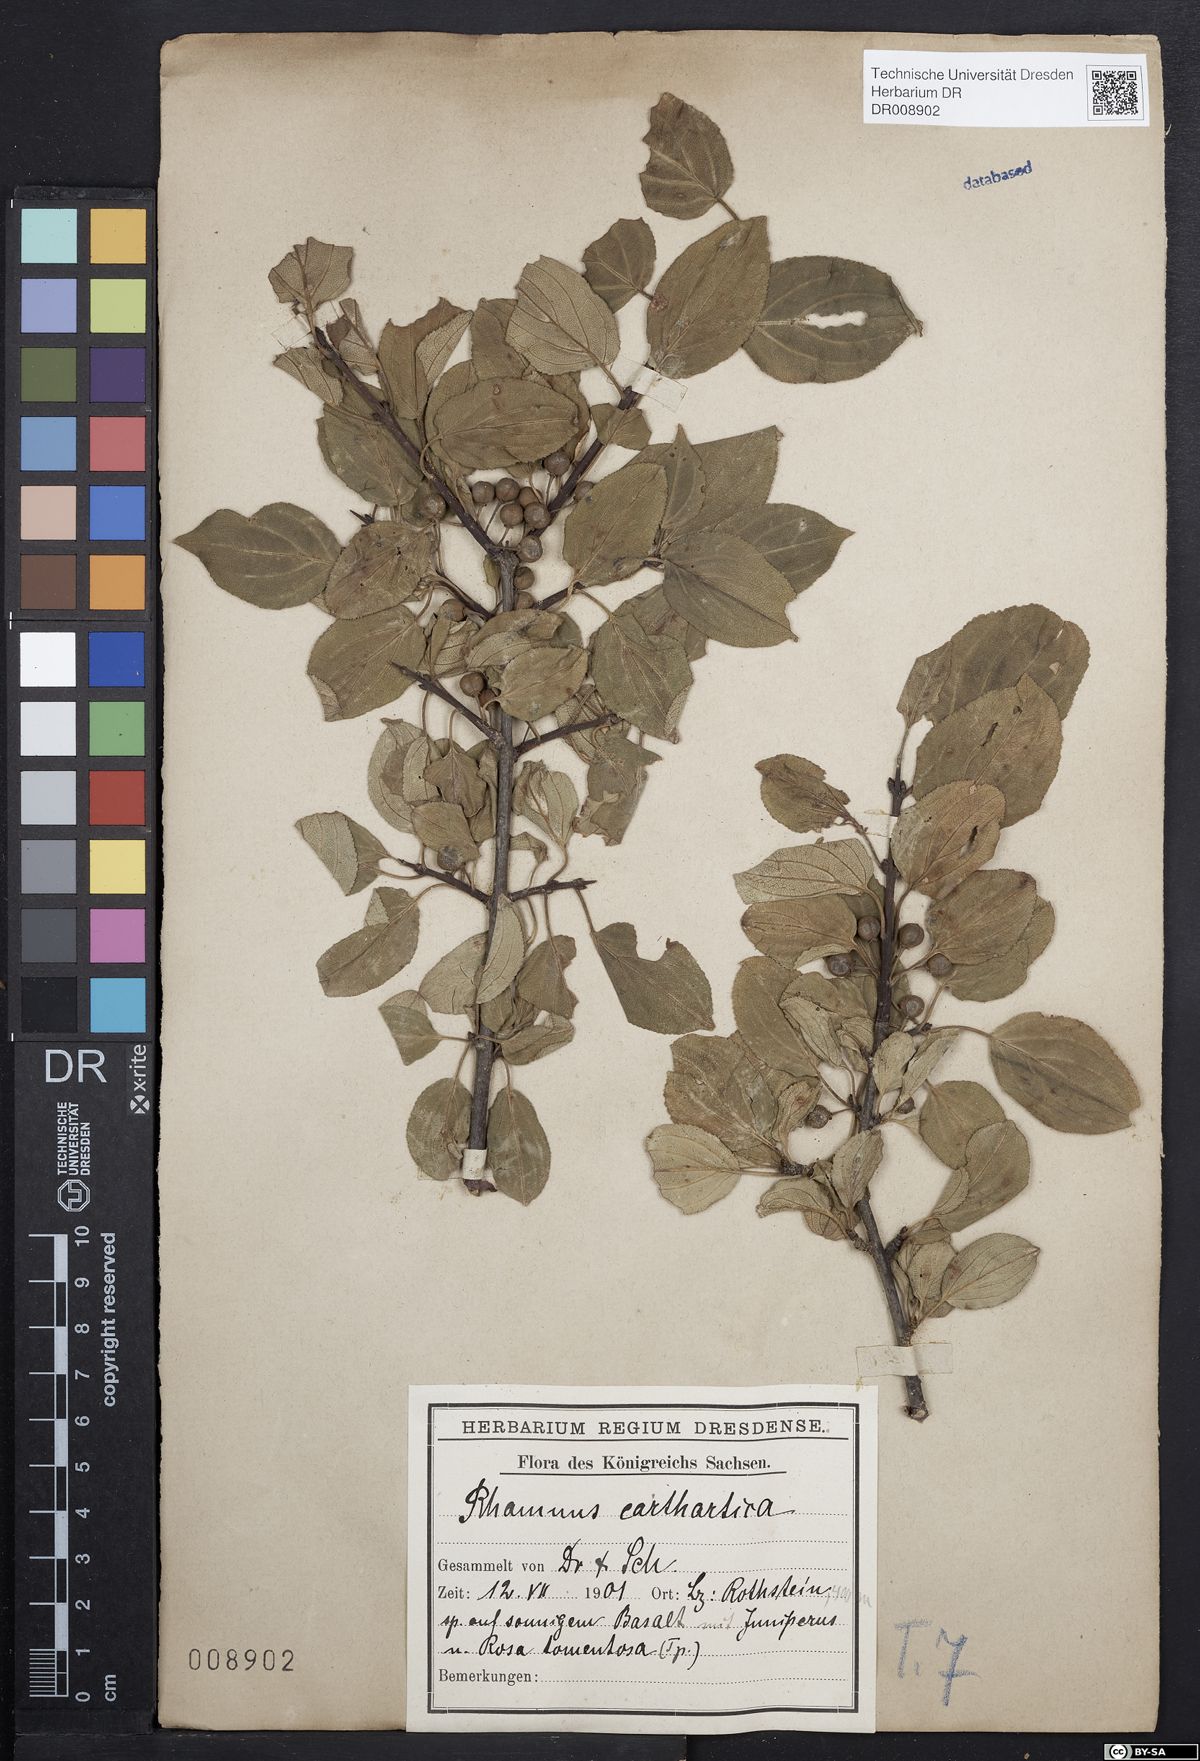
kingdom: Plantae
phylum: Tracheophyta
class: Magnoliopsida
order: Rosales
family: Rhamnaceae
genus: Rhamnus
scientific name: Rhamnus cathartica
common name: Common buckthorn
